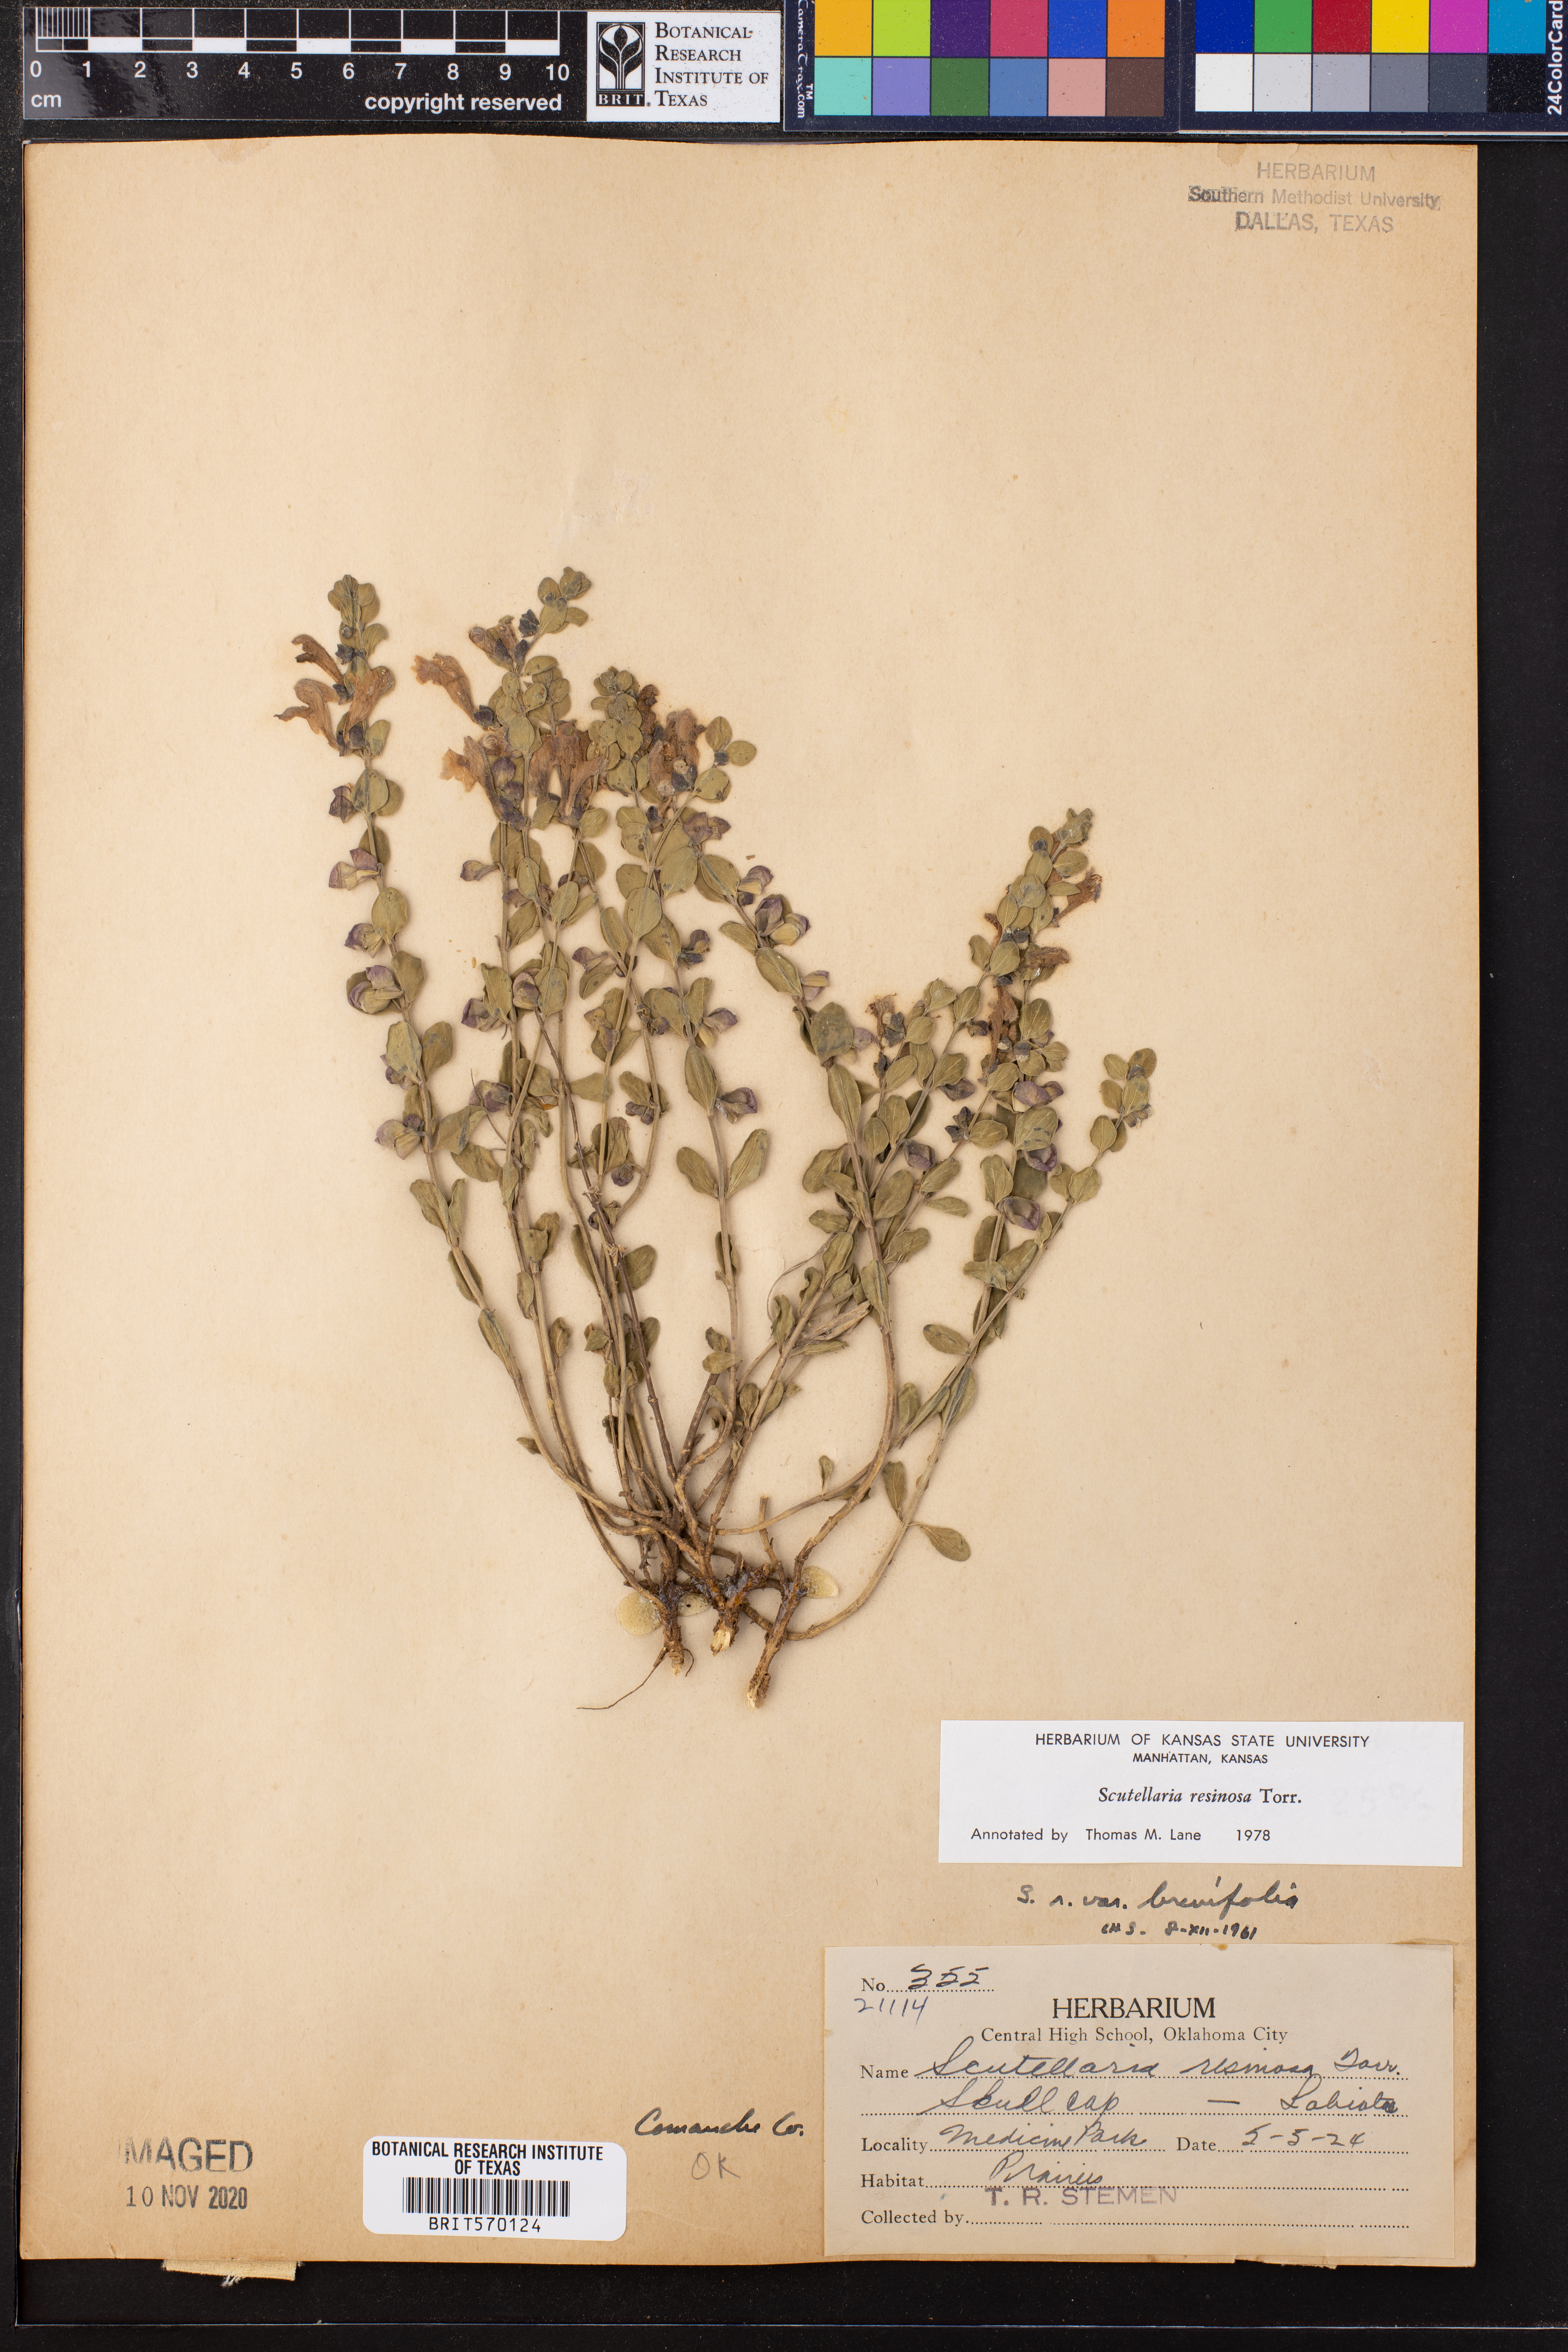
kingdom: Plantae
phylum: Tracheophyta
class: Magnoliopsida
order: Lamiales
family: Lamiaceae
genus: Scutellaria
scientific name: Scutellaria resinosa
